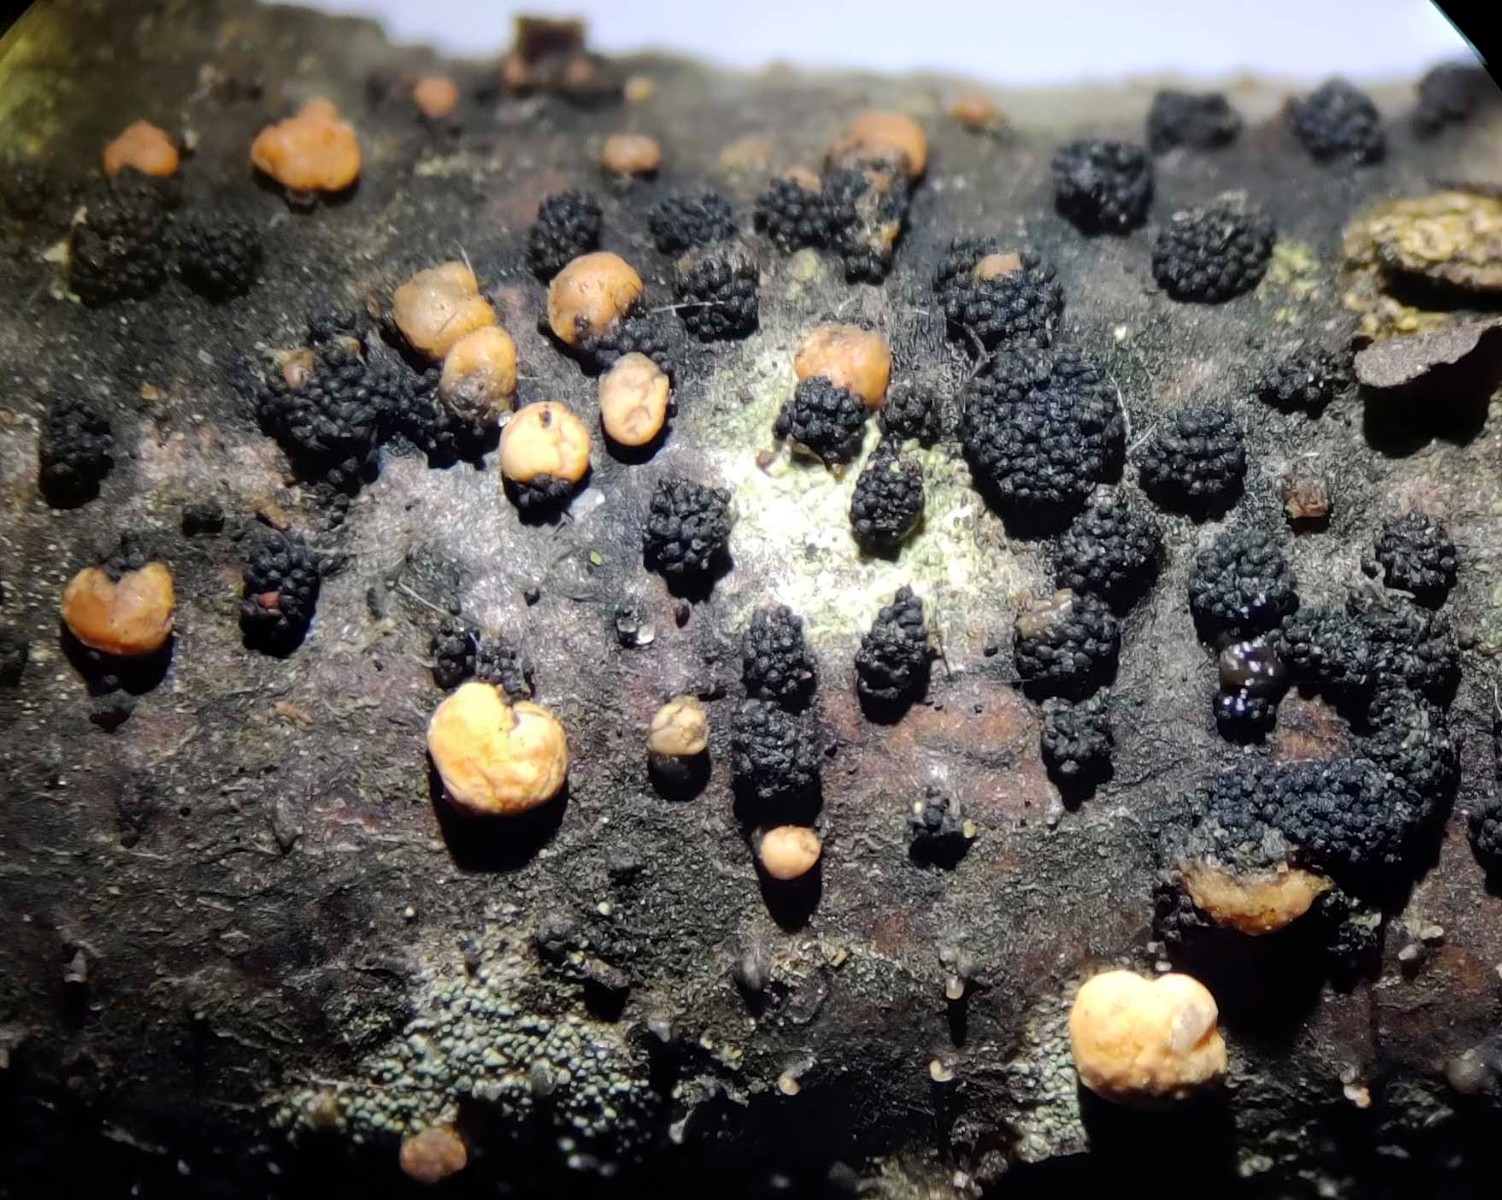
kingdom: Fungi
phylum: Ascomycota
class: Sordariomycetes
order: Coronophorales
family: Nitschkiaceae
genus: Nitschkia
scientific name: Nitschkia parasitans
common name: snyltende skålkerne
